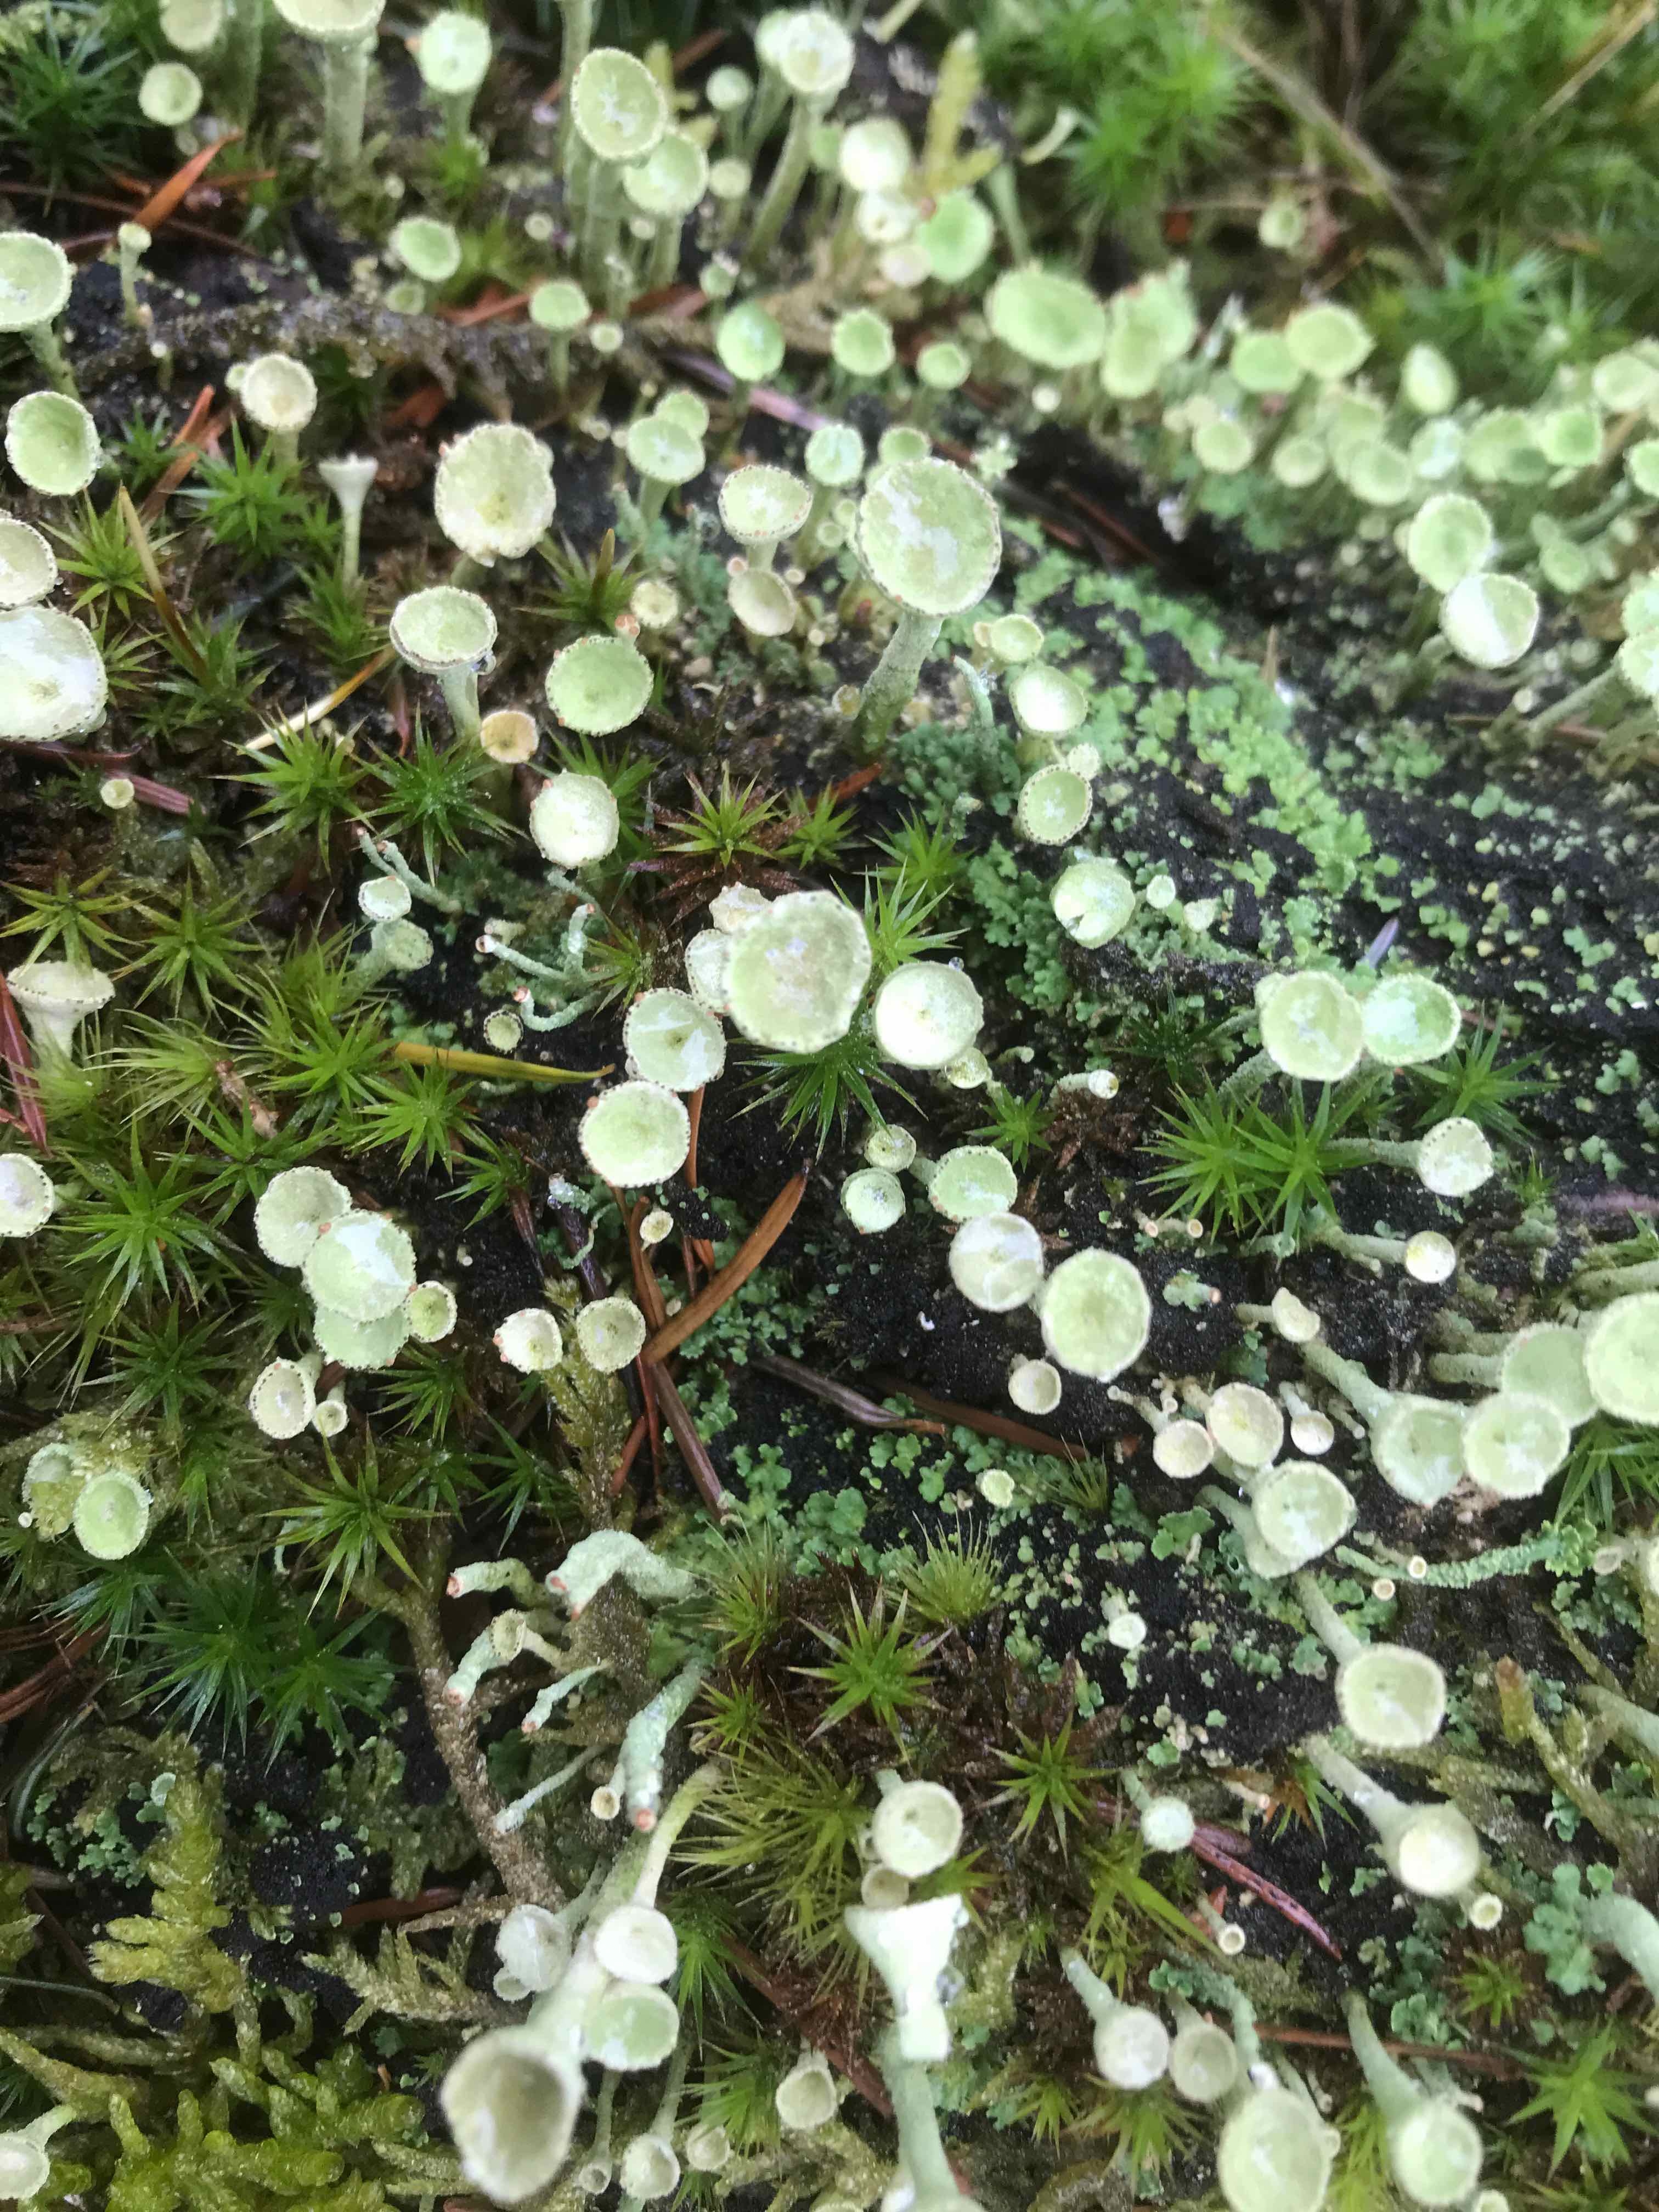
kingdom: Fungi
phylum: Ascomycota
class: Lecanoromycetes
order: Lecanorales
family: Cladoniaceae
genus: Cladonia
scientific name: Cladonia fimbriata
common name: bleggrøn bægerlav
